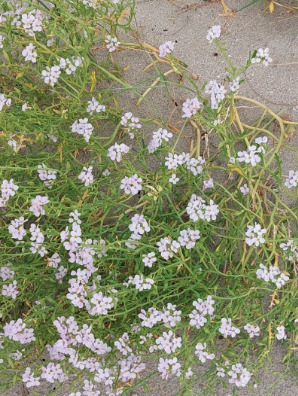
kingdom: Plantae
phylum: Tracheophyta
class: Magnoliopsida
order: Brassicales
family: Brassicaceae
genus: Cakile
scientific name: Cakile maritima
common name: Strandsennep
